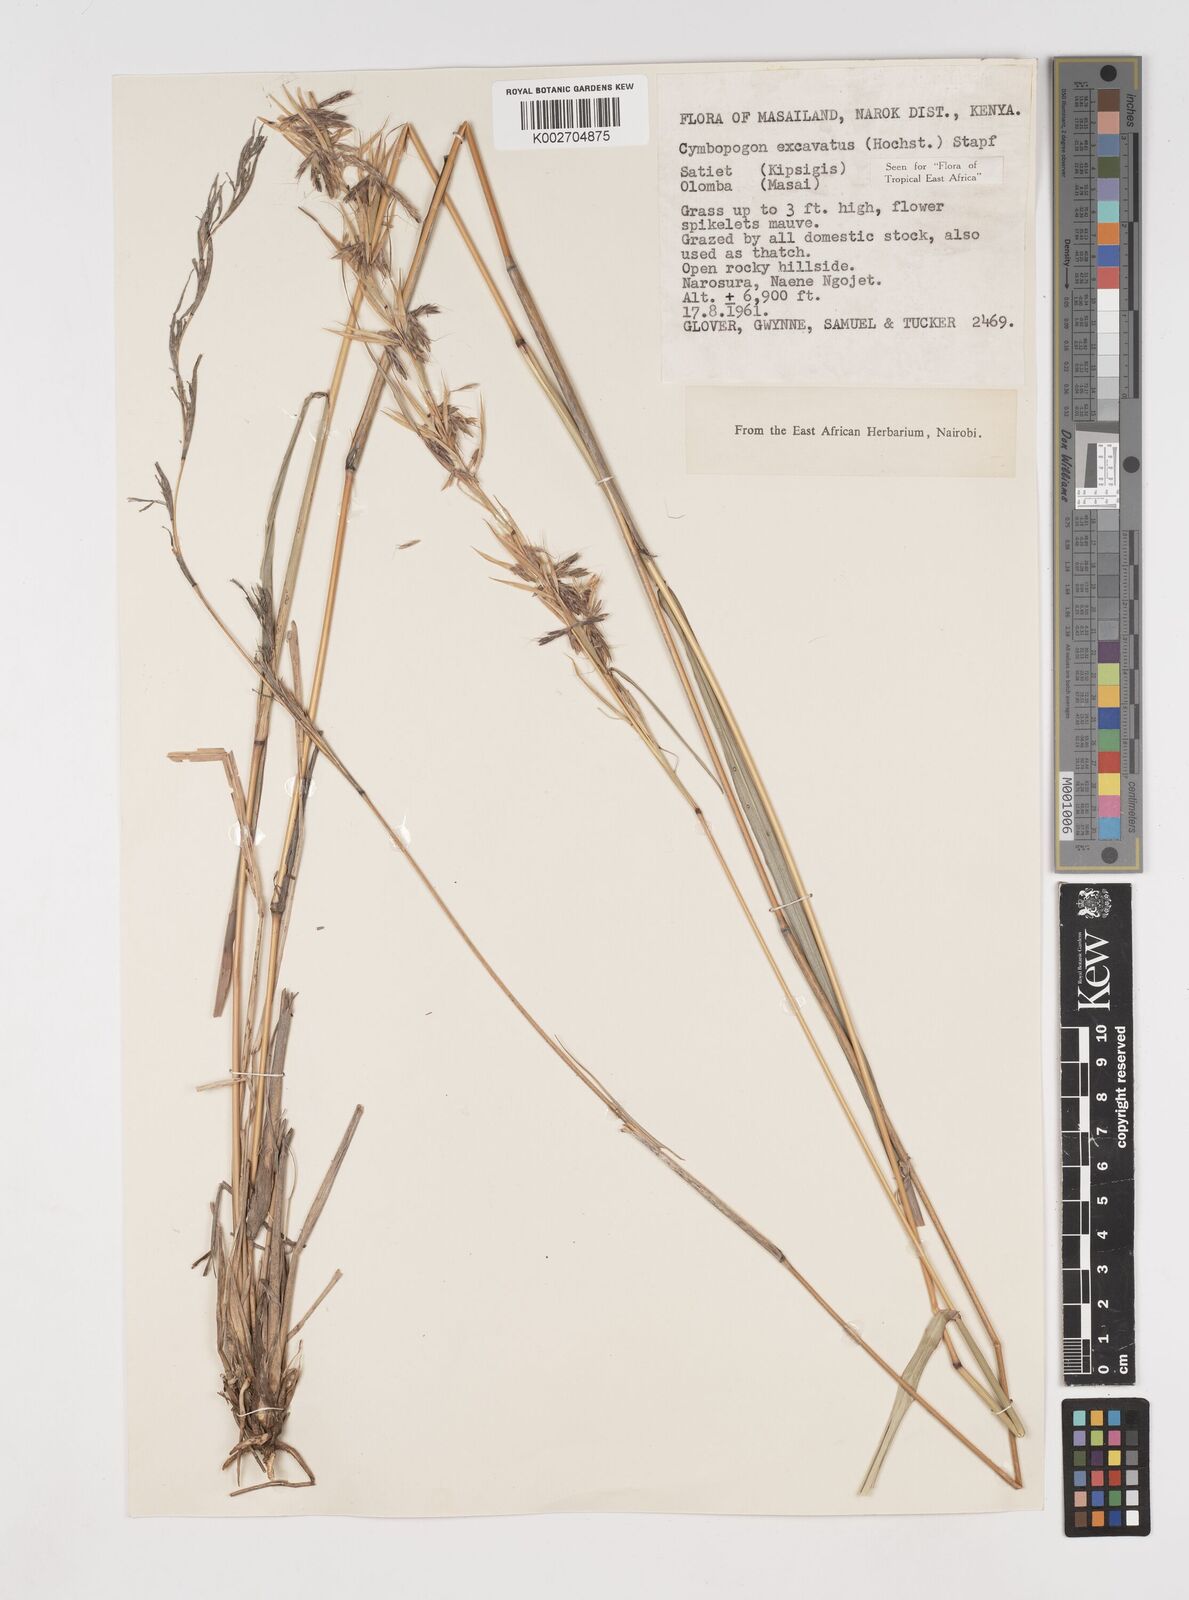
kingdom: Plantae
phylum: Tracheophyta
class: Liliopsida
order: Poales
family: Poaceae
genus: Cymbopogon
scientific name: Cymbopogon caesius
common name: Kachi grass
